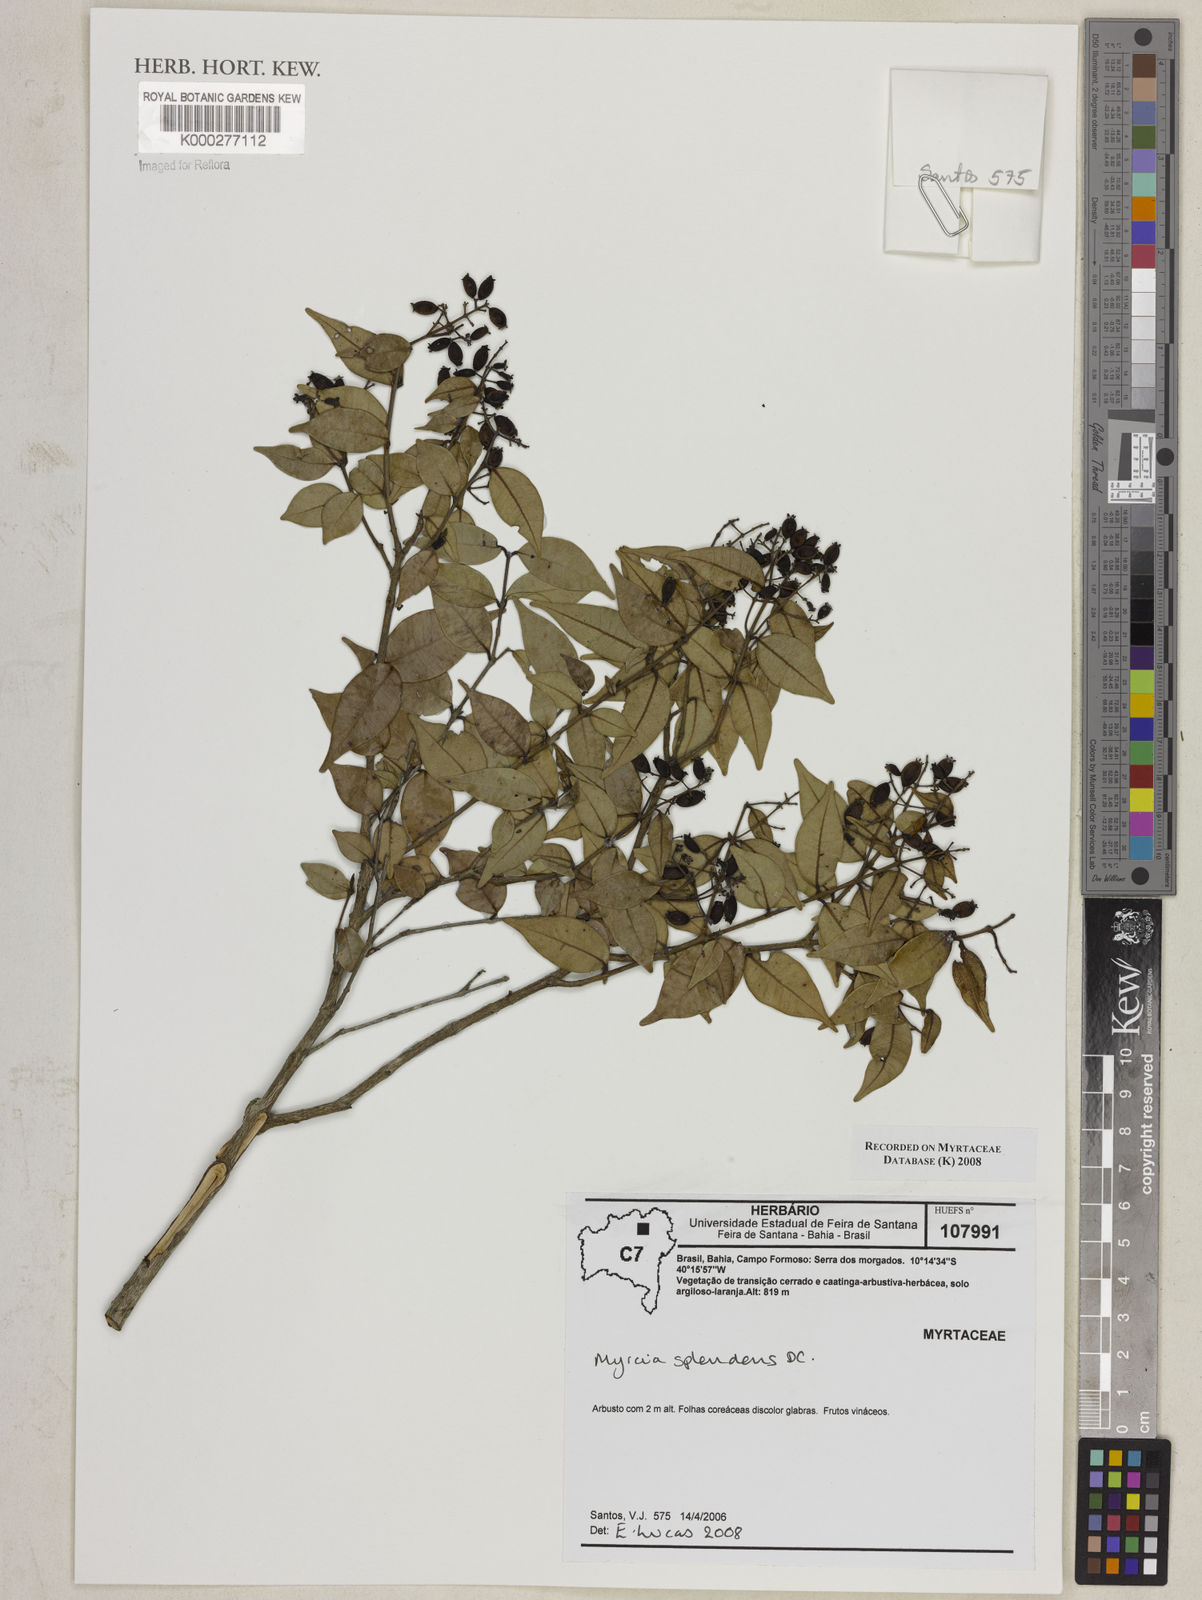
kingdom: Plantae
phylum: Tracheophyta
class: Magnoliopsida
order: Myrtales
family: Myrtaceae
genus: Myrcia
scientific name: Myrcia splendens
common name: Surinam cherry
